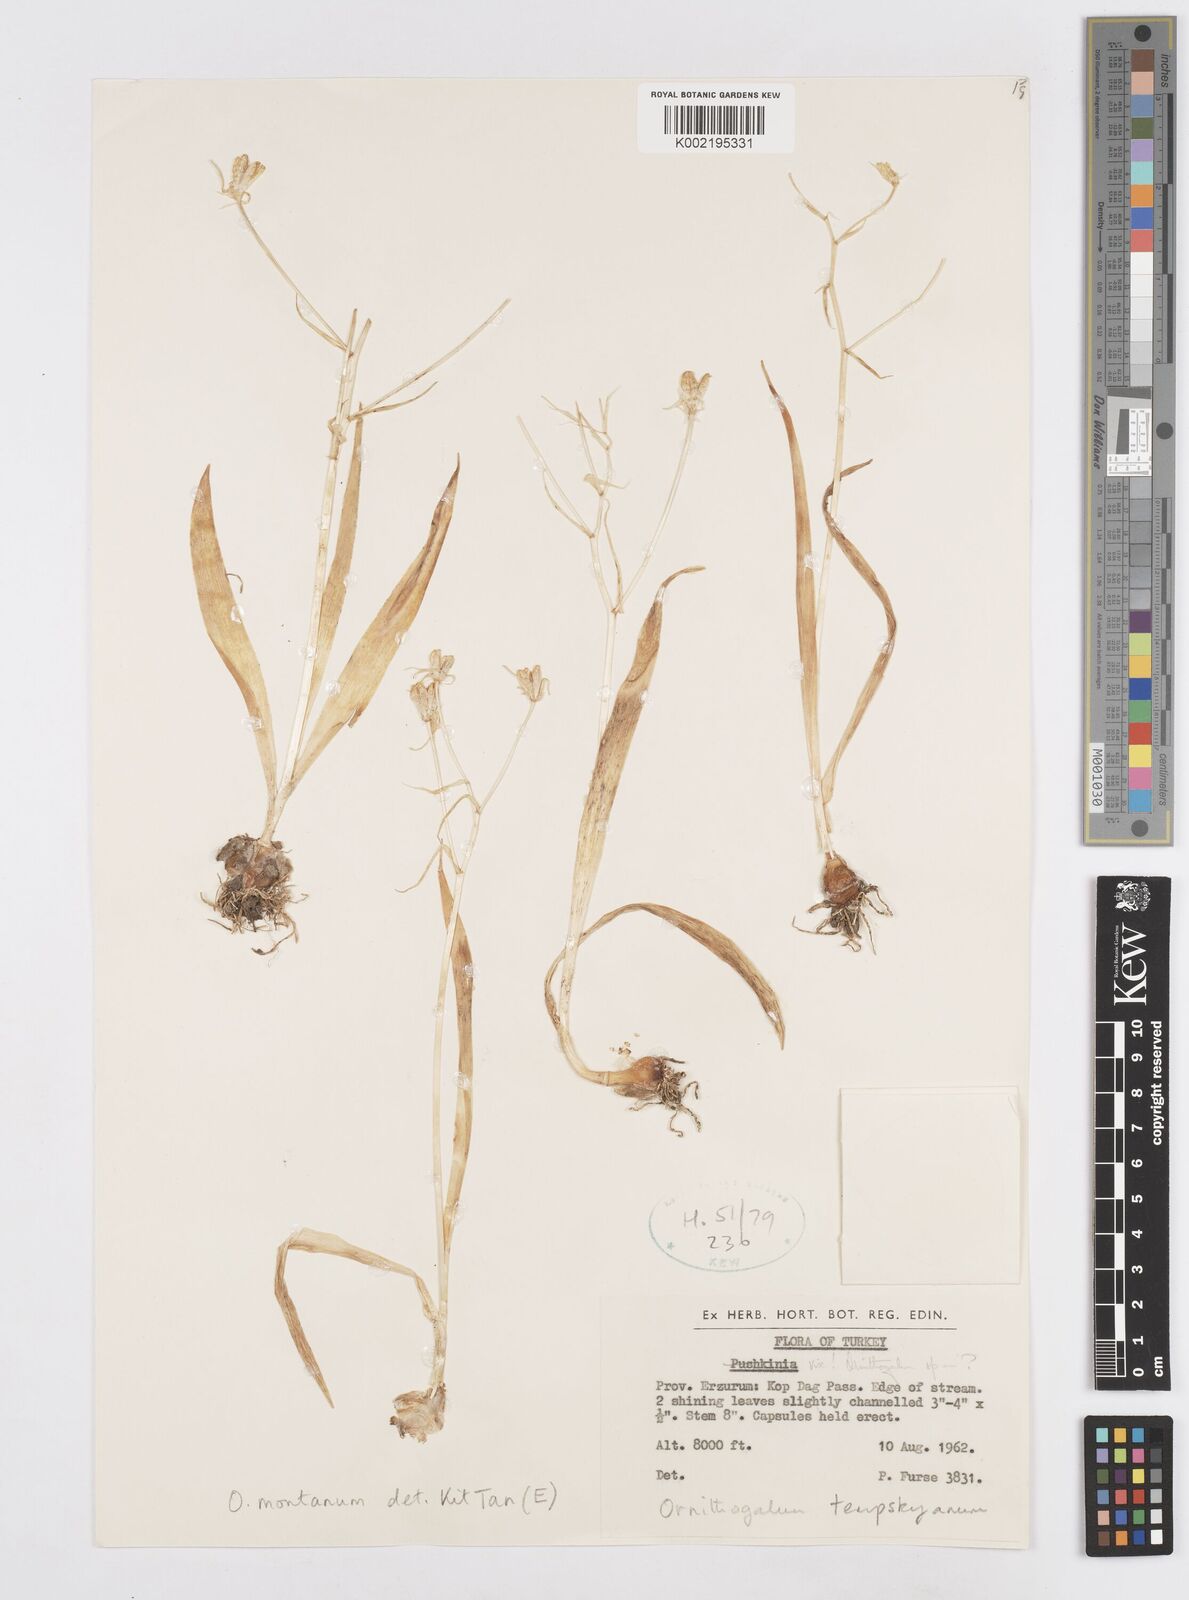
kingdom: Plantae
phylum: Tracheophyta
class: Liliopsida
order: Asparagales
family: Asparagaceae
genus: Ornithogalum
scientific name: Ornithogalum graciliflorum
